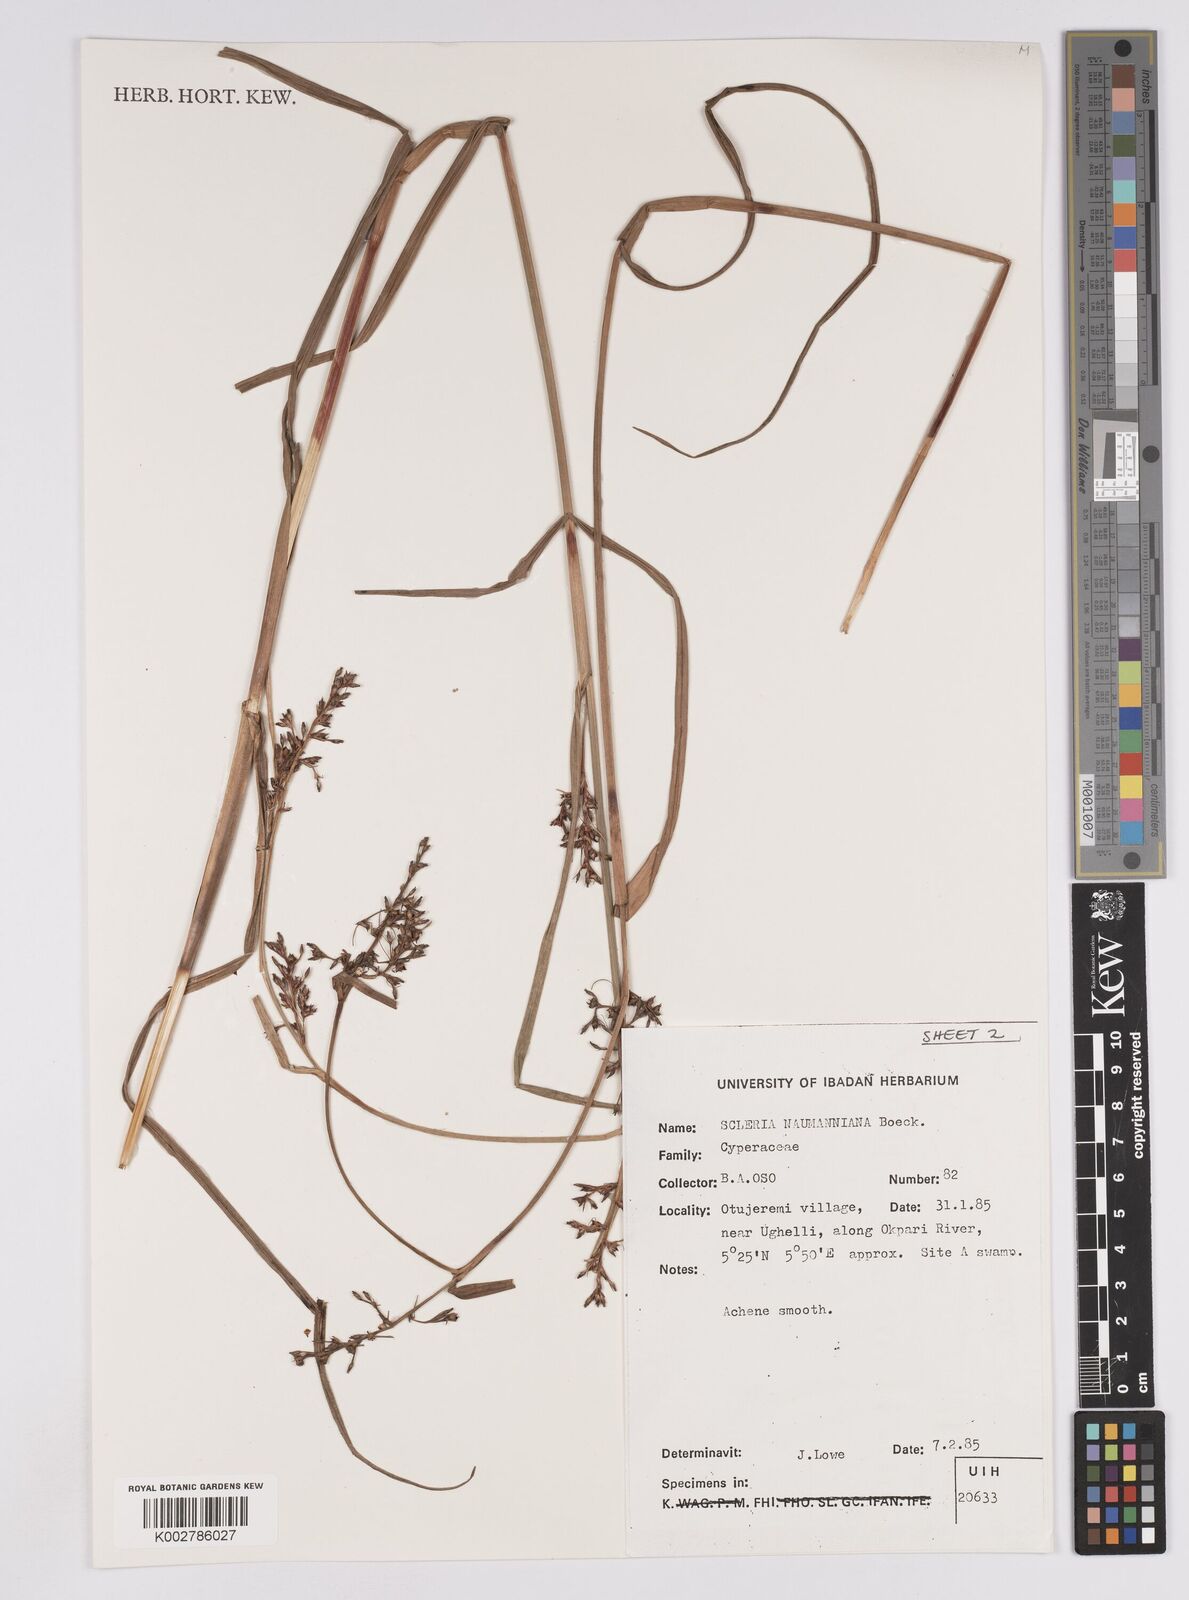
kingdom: Plantae
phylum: Tracheophyta
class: Liliopsida
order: Poales
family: Cyperaceae
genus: Scleria
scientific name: Scleria naumanniana
